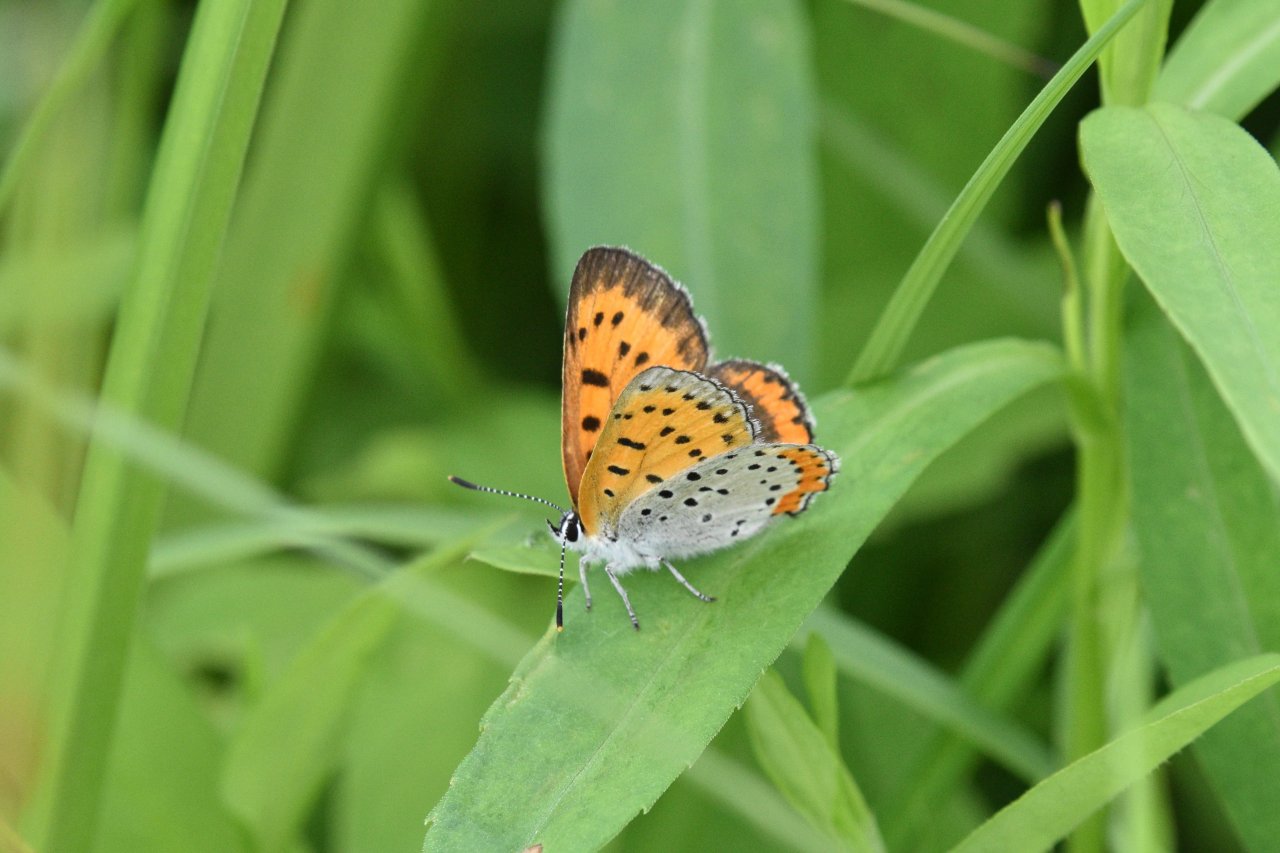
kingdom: Animalia
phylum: Arthropoda
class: Insecta
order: Lepidoptera
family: Sesiidae
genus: Sesia
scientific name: Sesia Lycaena hyllus
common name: Bronze Copper
